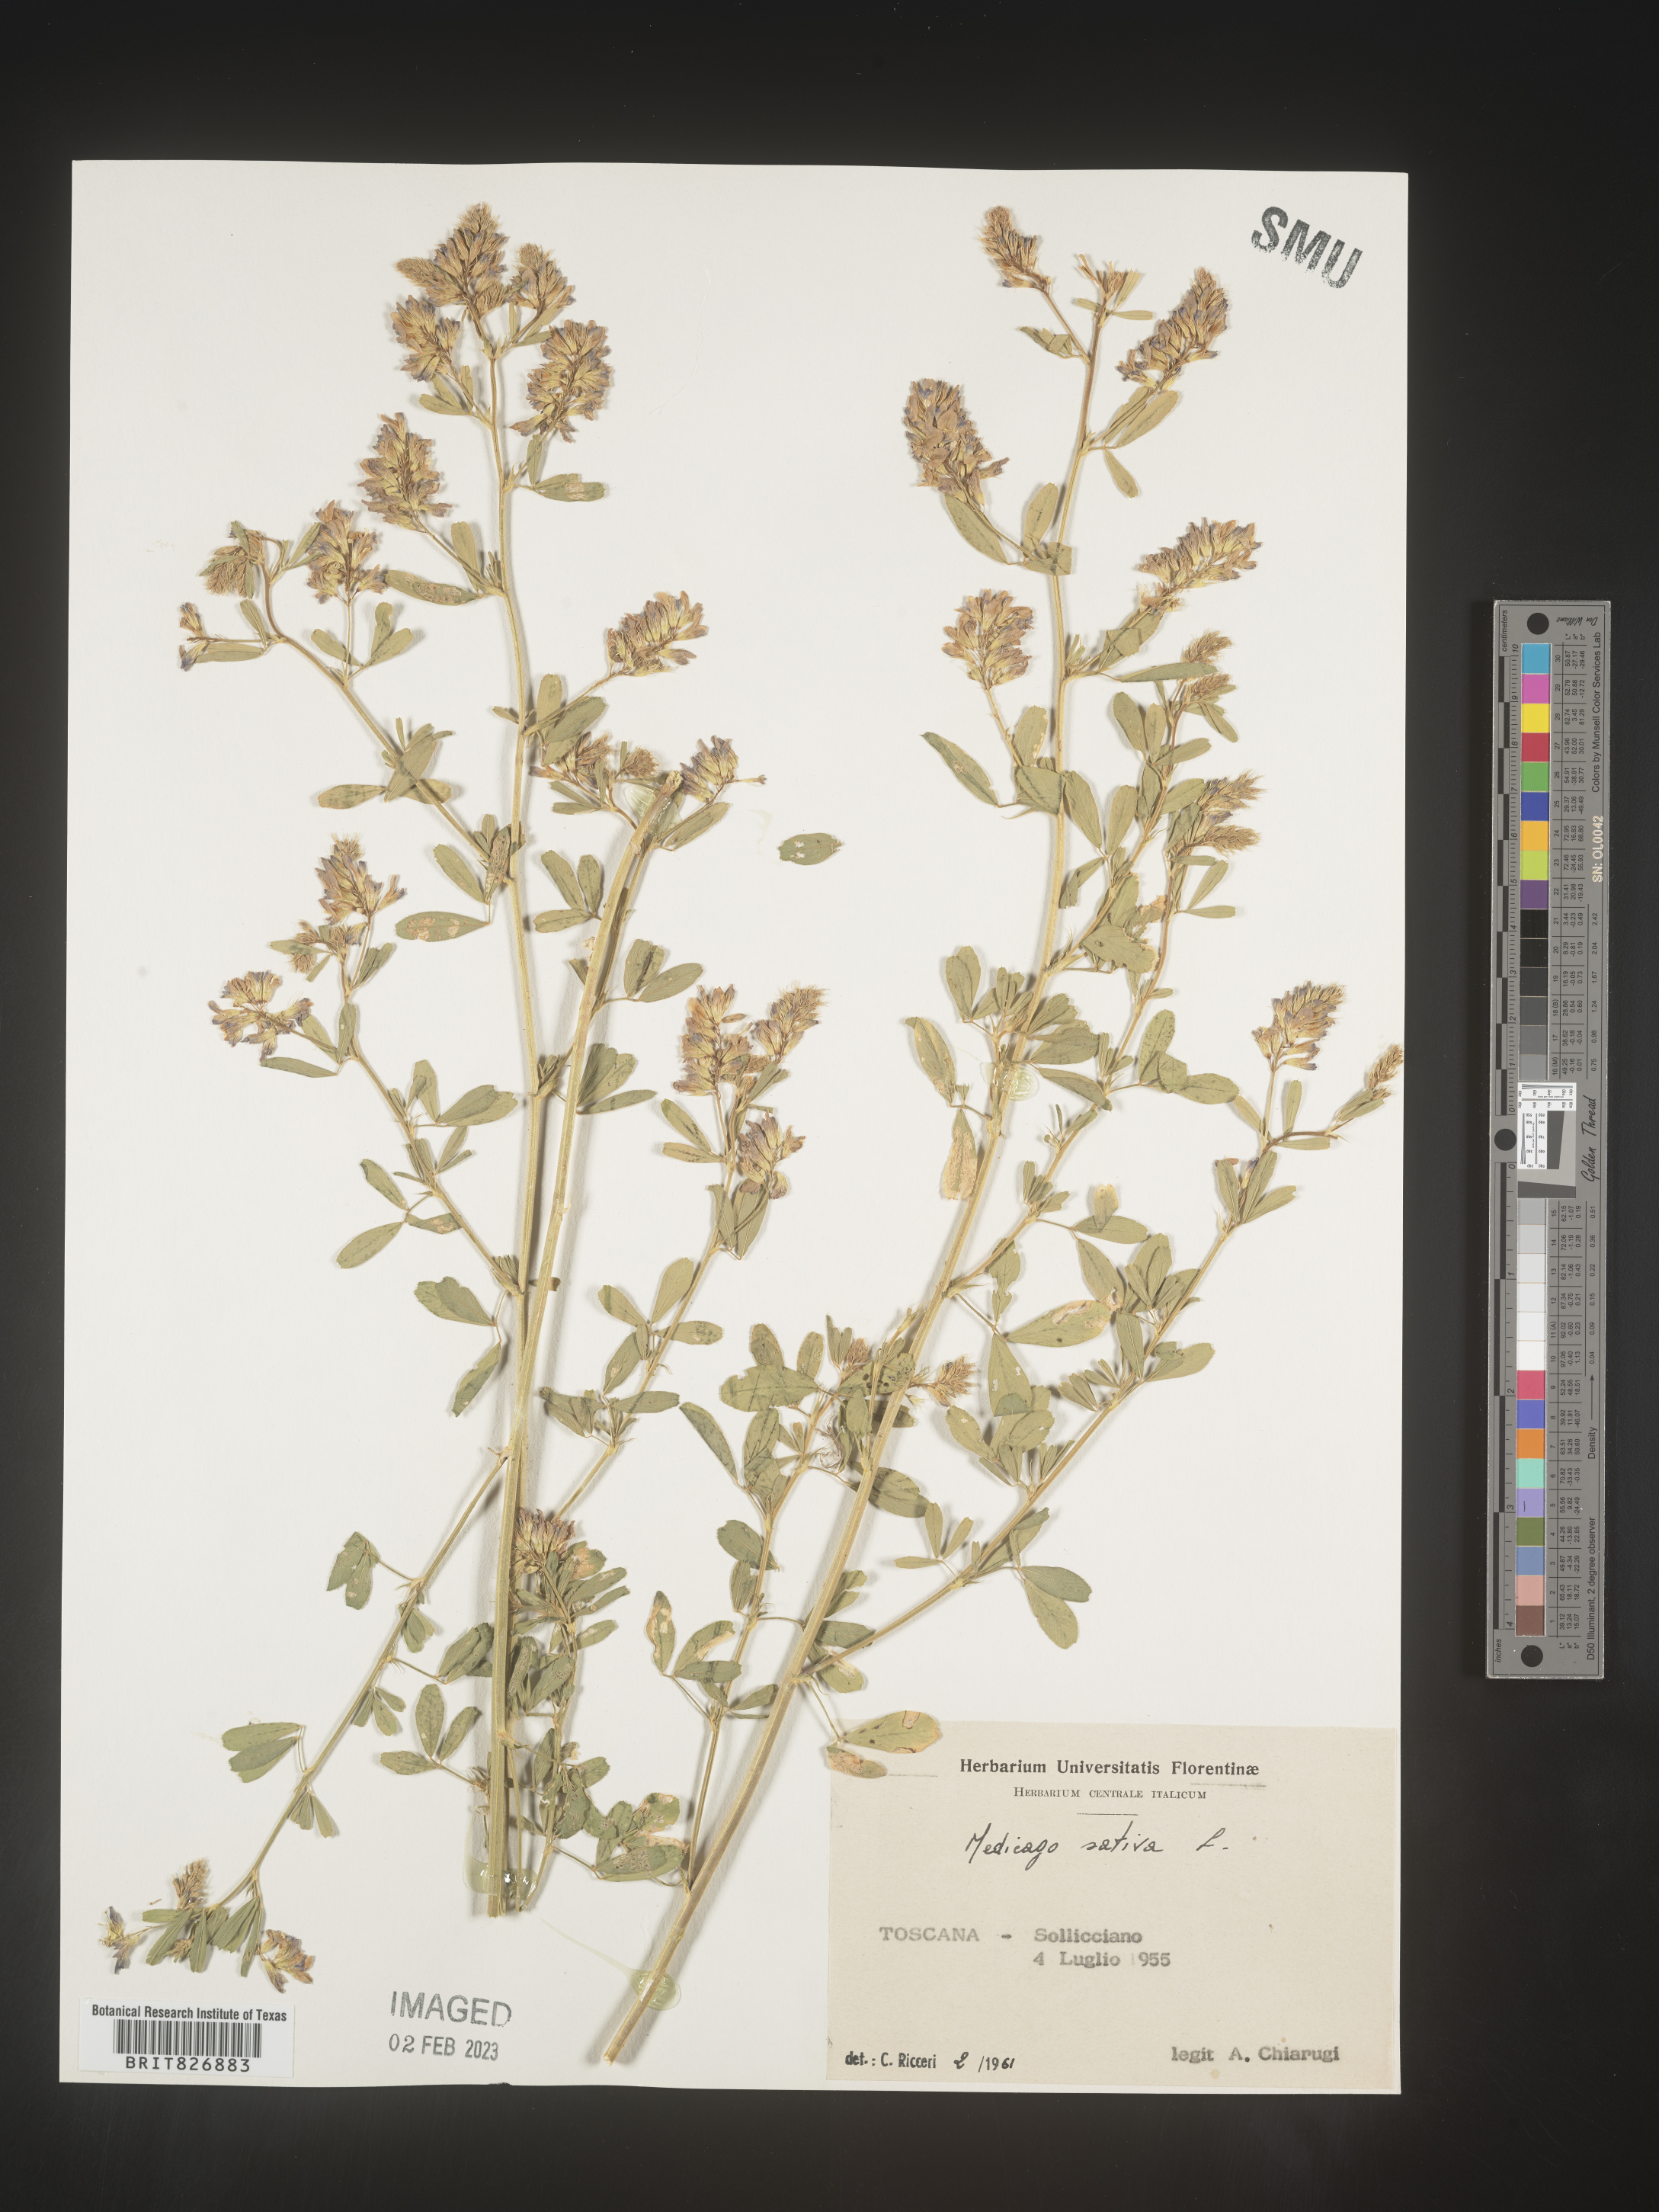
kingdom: Plantae
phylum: Tracheophyta
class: Magnoliopsida
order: Fabales
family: Fabaceae
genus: Medicago
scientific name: Medicago
